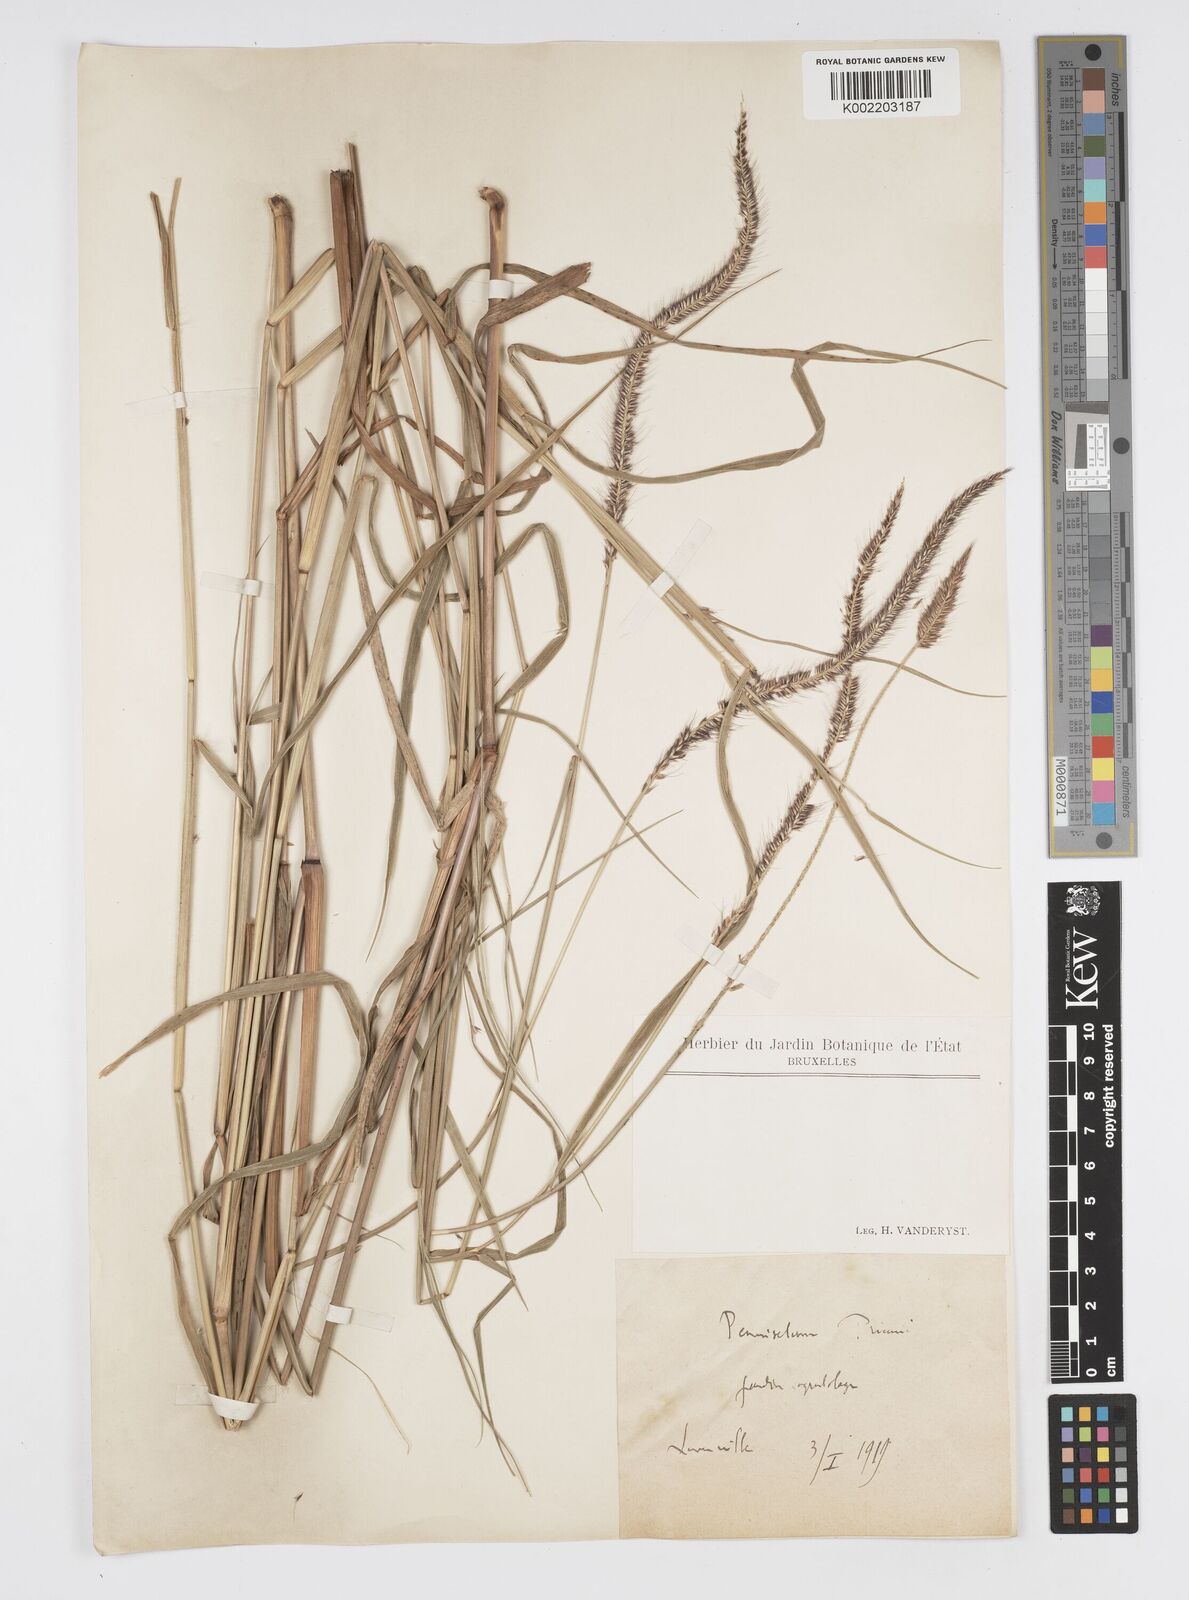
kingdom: Plantae
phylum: Tracheophyta
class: Liliopsida
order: Poales
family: Poaceae
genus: Cenchrus
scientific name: Cenchrus hordeoides
